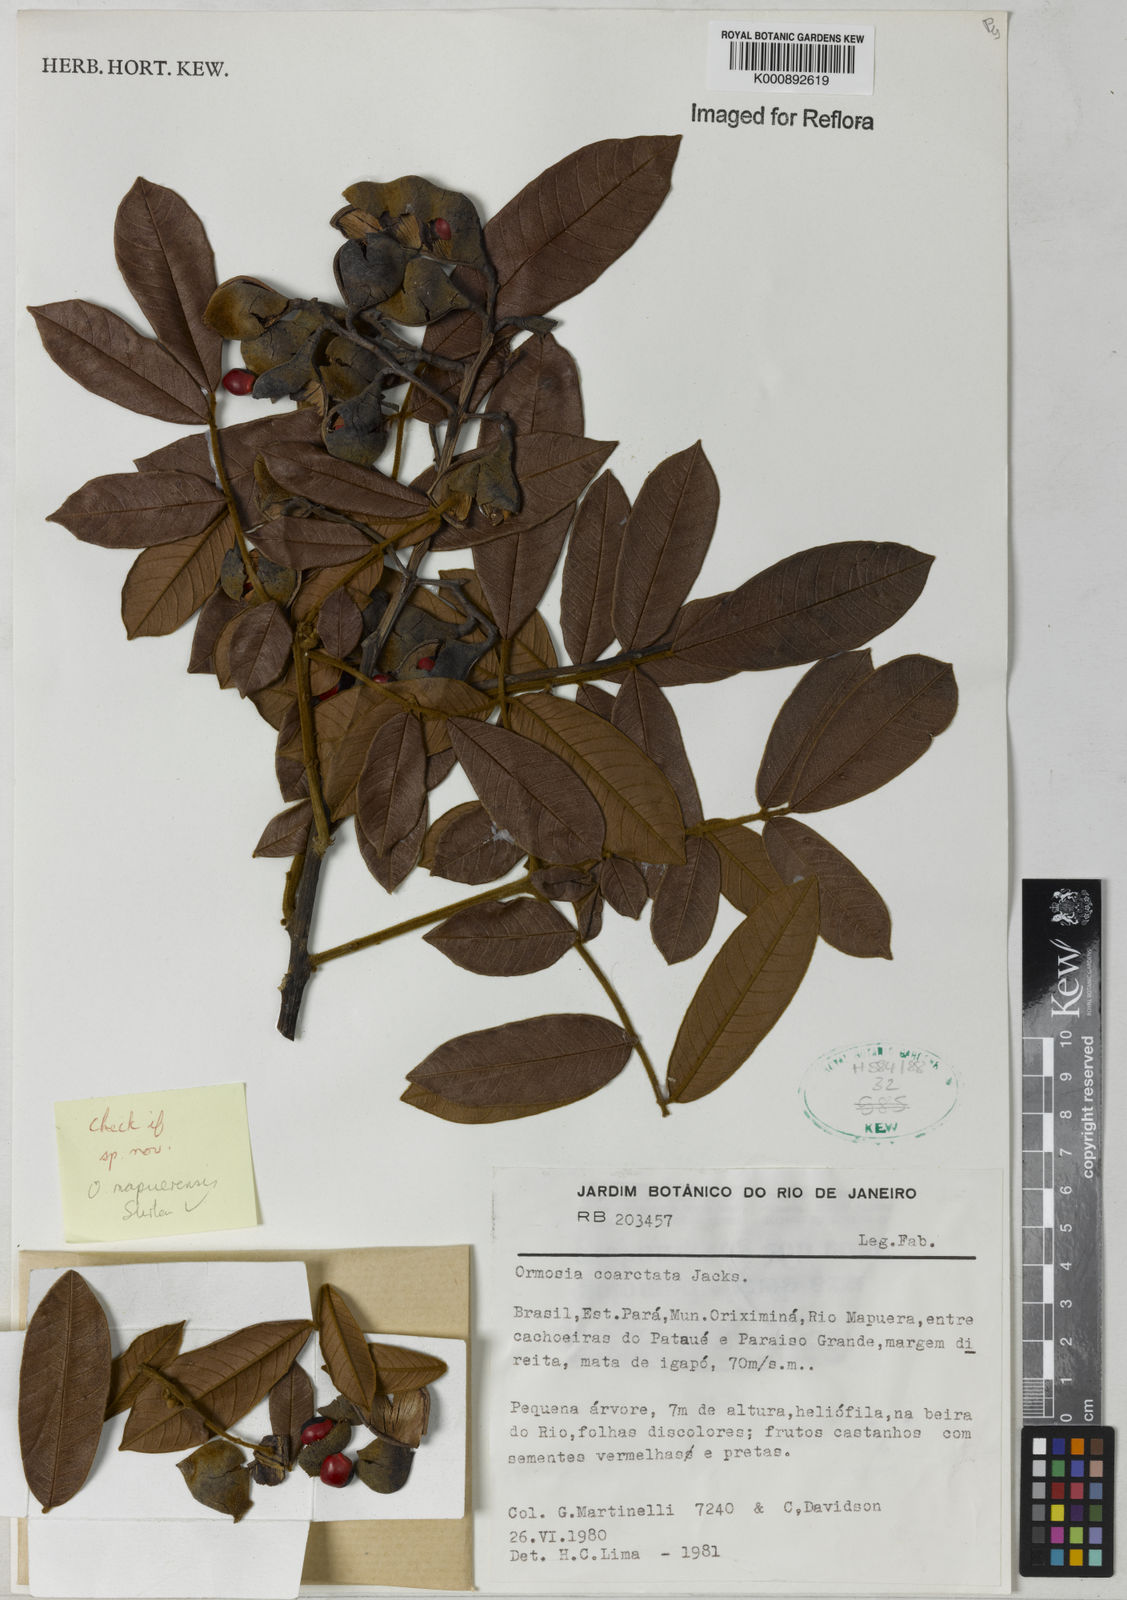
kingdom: Plantae
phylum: Tracheophyta
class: Magnoliopsida
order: Fabales
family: Fabaceae
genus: Ormosia
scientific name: Ormosia
